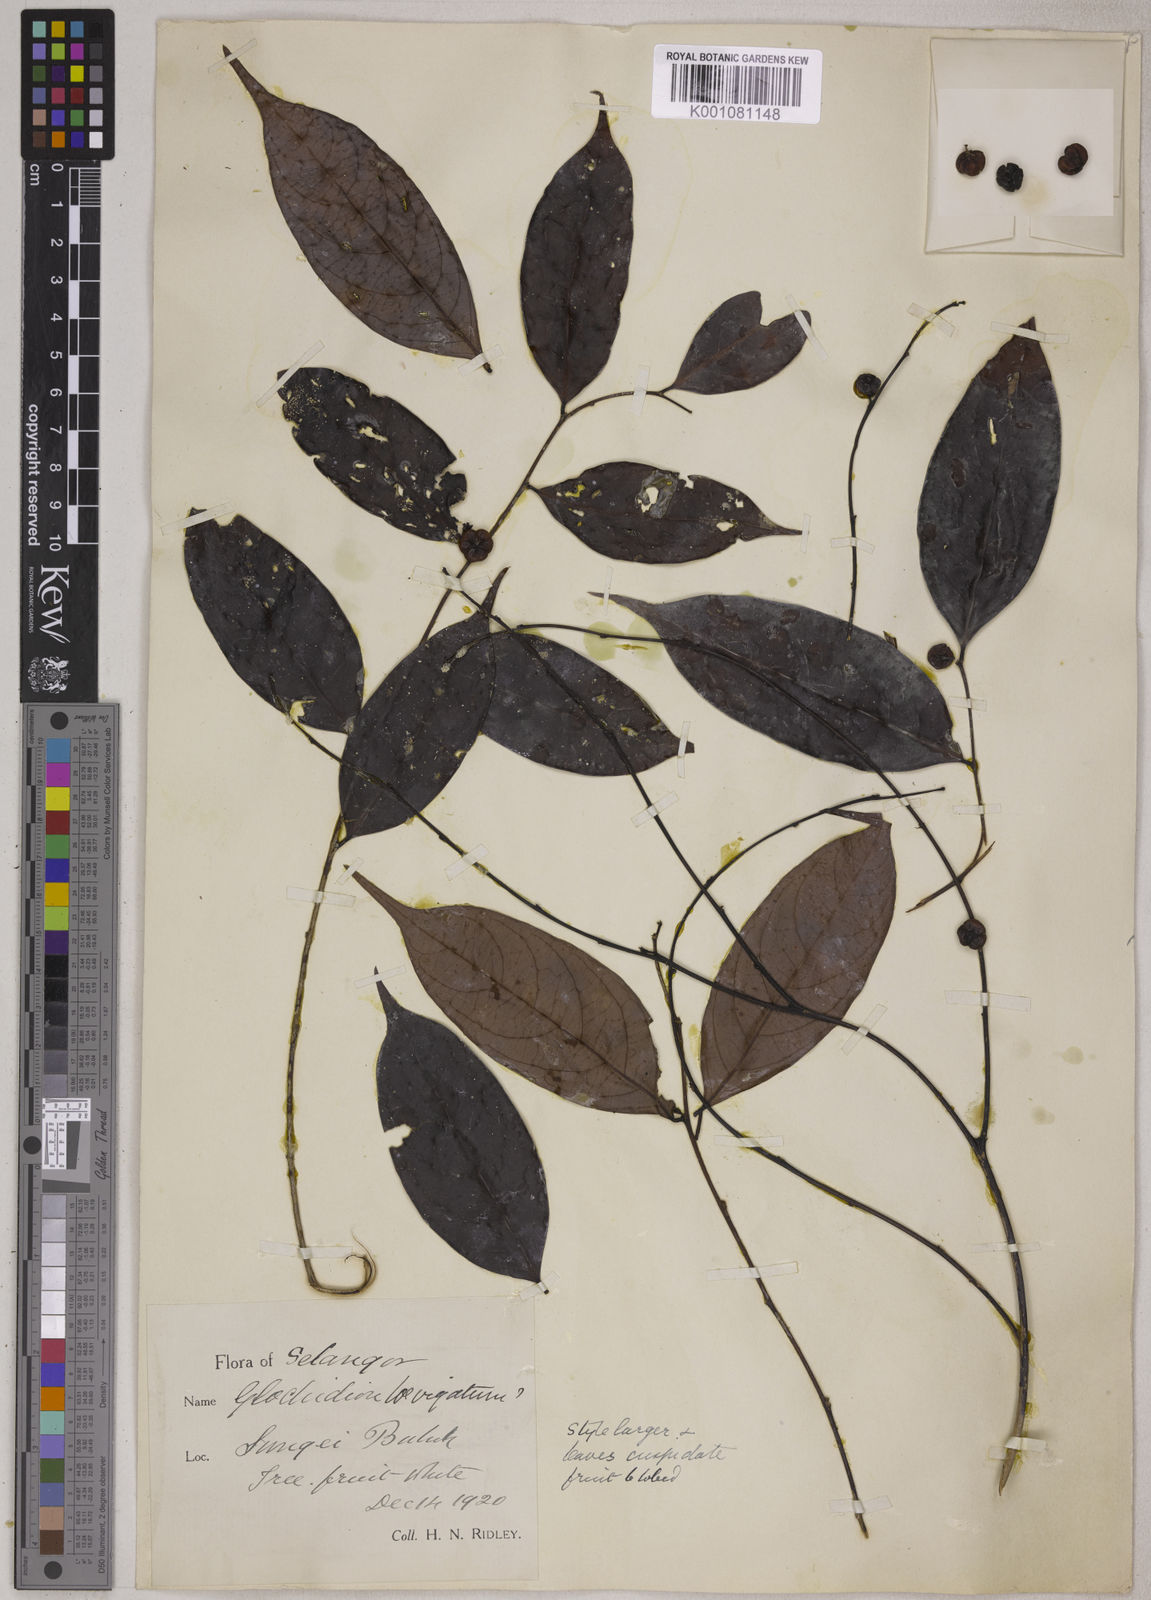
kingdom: Plantae
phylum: Tracheophyta
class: Magnoliopsida
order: Malpighiales
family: Phyllanthaceae
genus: Glochidion
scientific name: Glochidion
